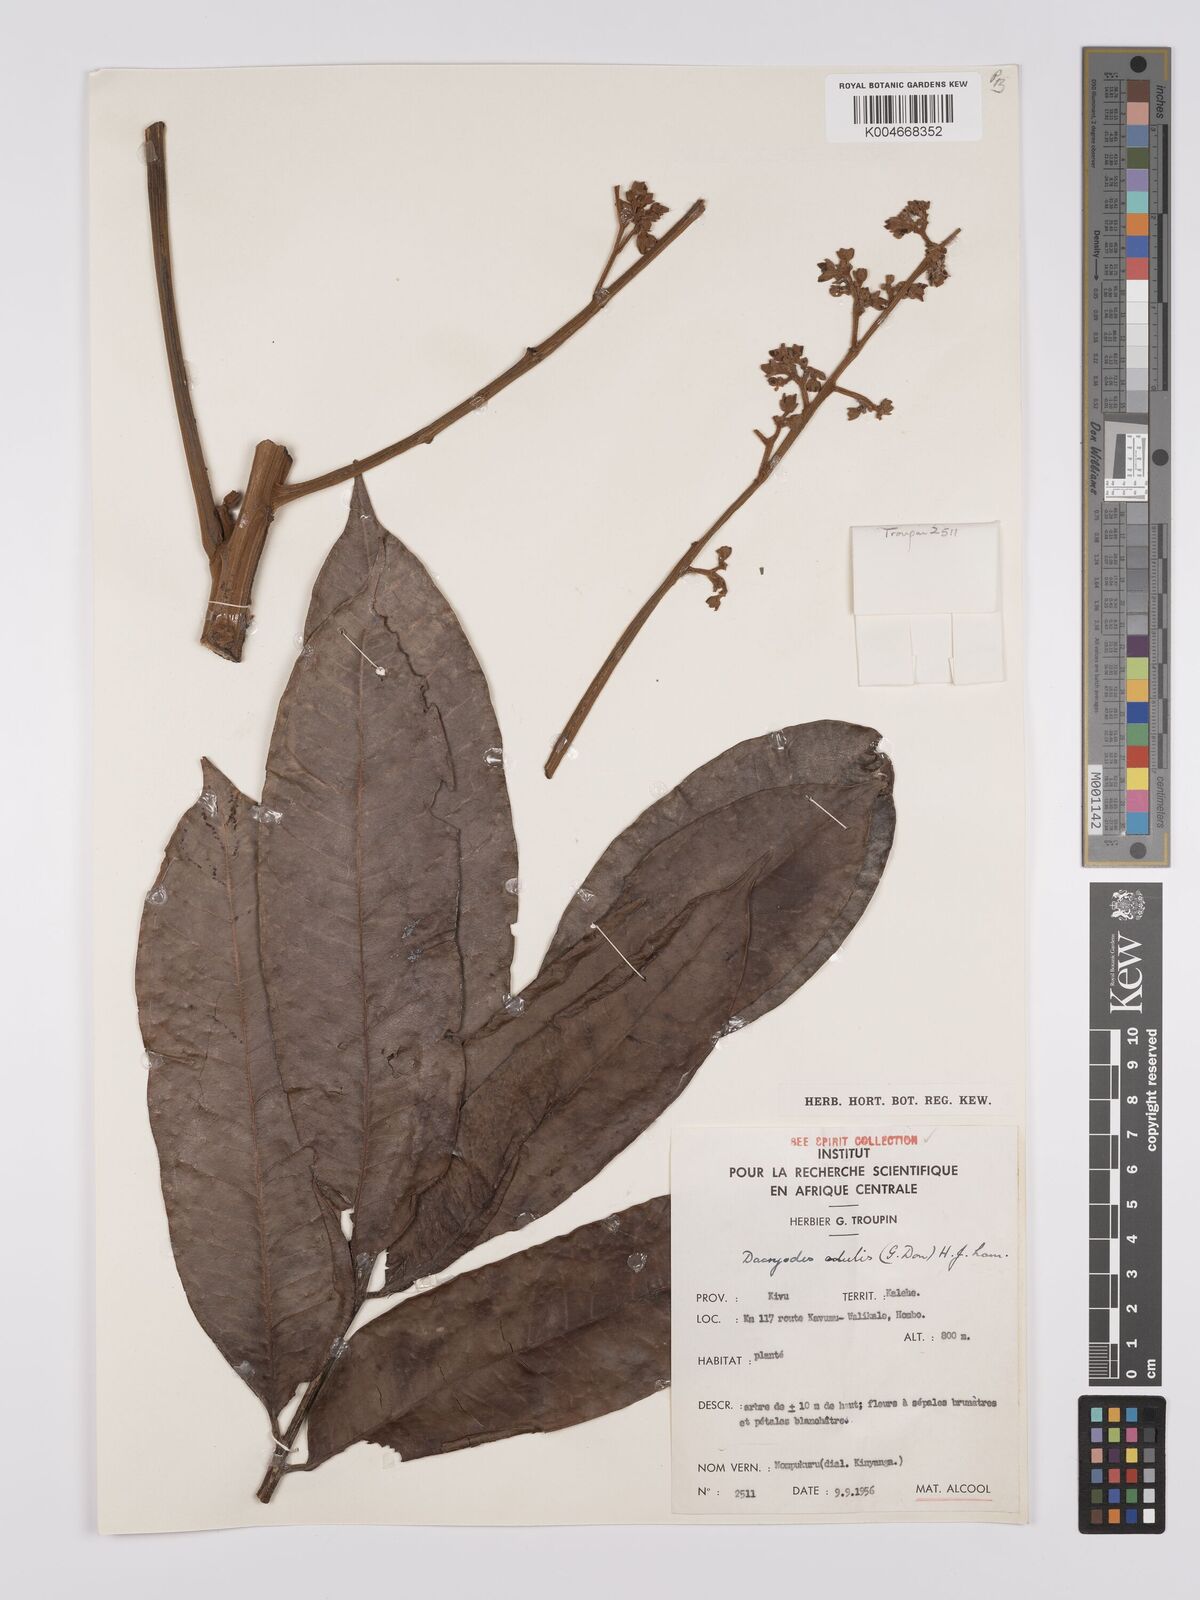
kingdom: Plantae
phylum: Tracheophyta
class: Magnoliopsida
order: Sapindales
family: Burseraceae
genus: Pachylobus
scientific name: Pachylobus edulis
